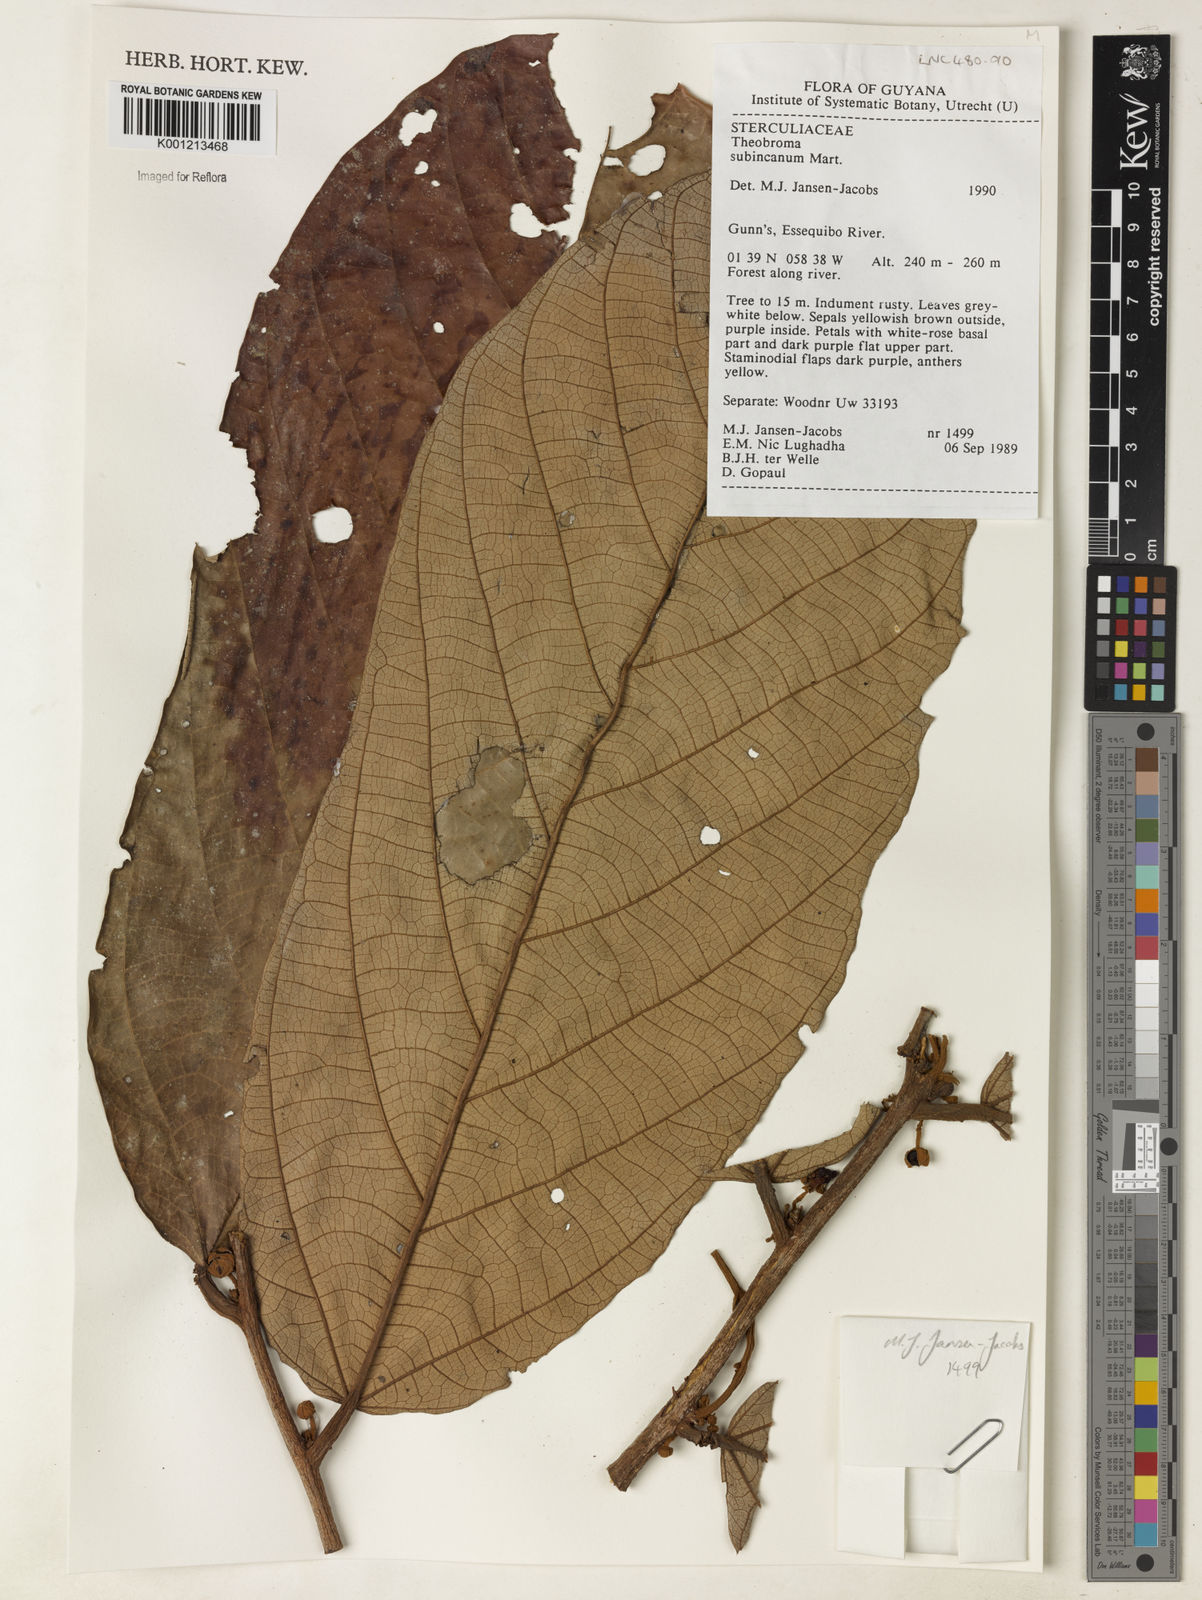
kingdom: Plantae
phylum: Tracheophyta
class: Magnoliopsida
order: Malvales
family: Malvaceae
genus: Theobroma
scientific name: Theobroma subincanum
